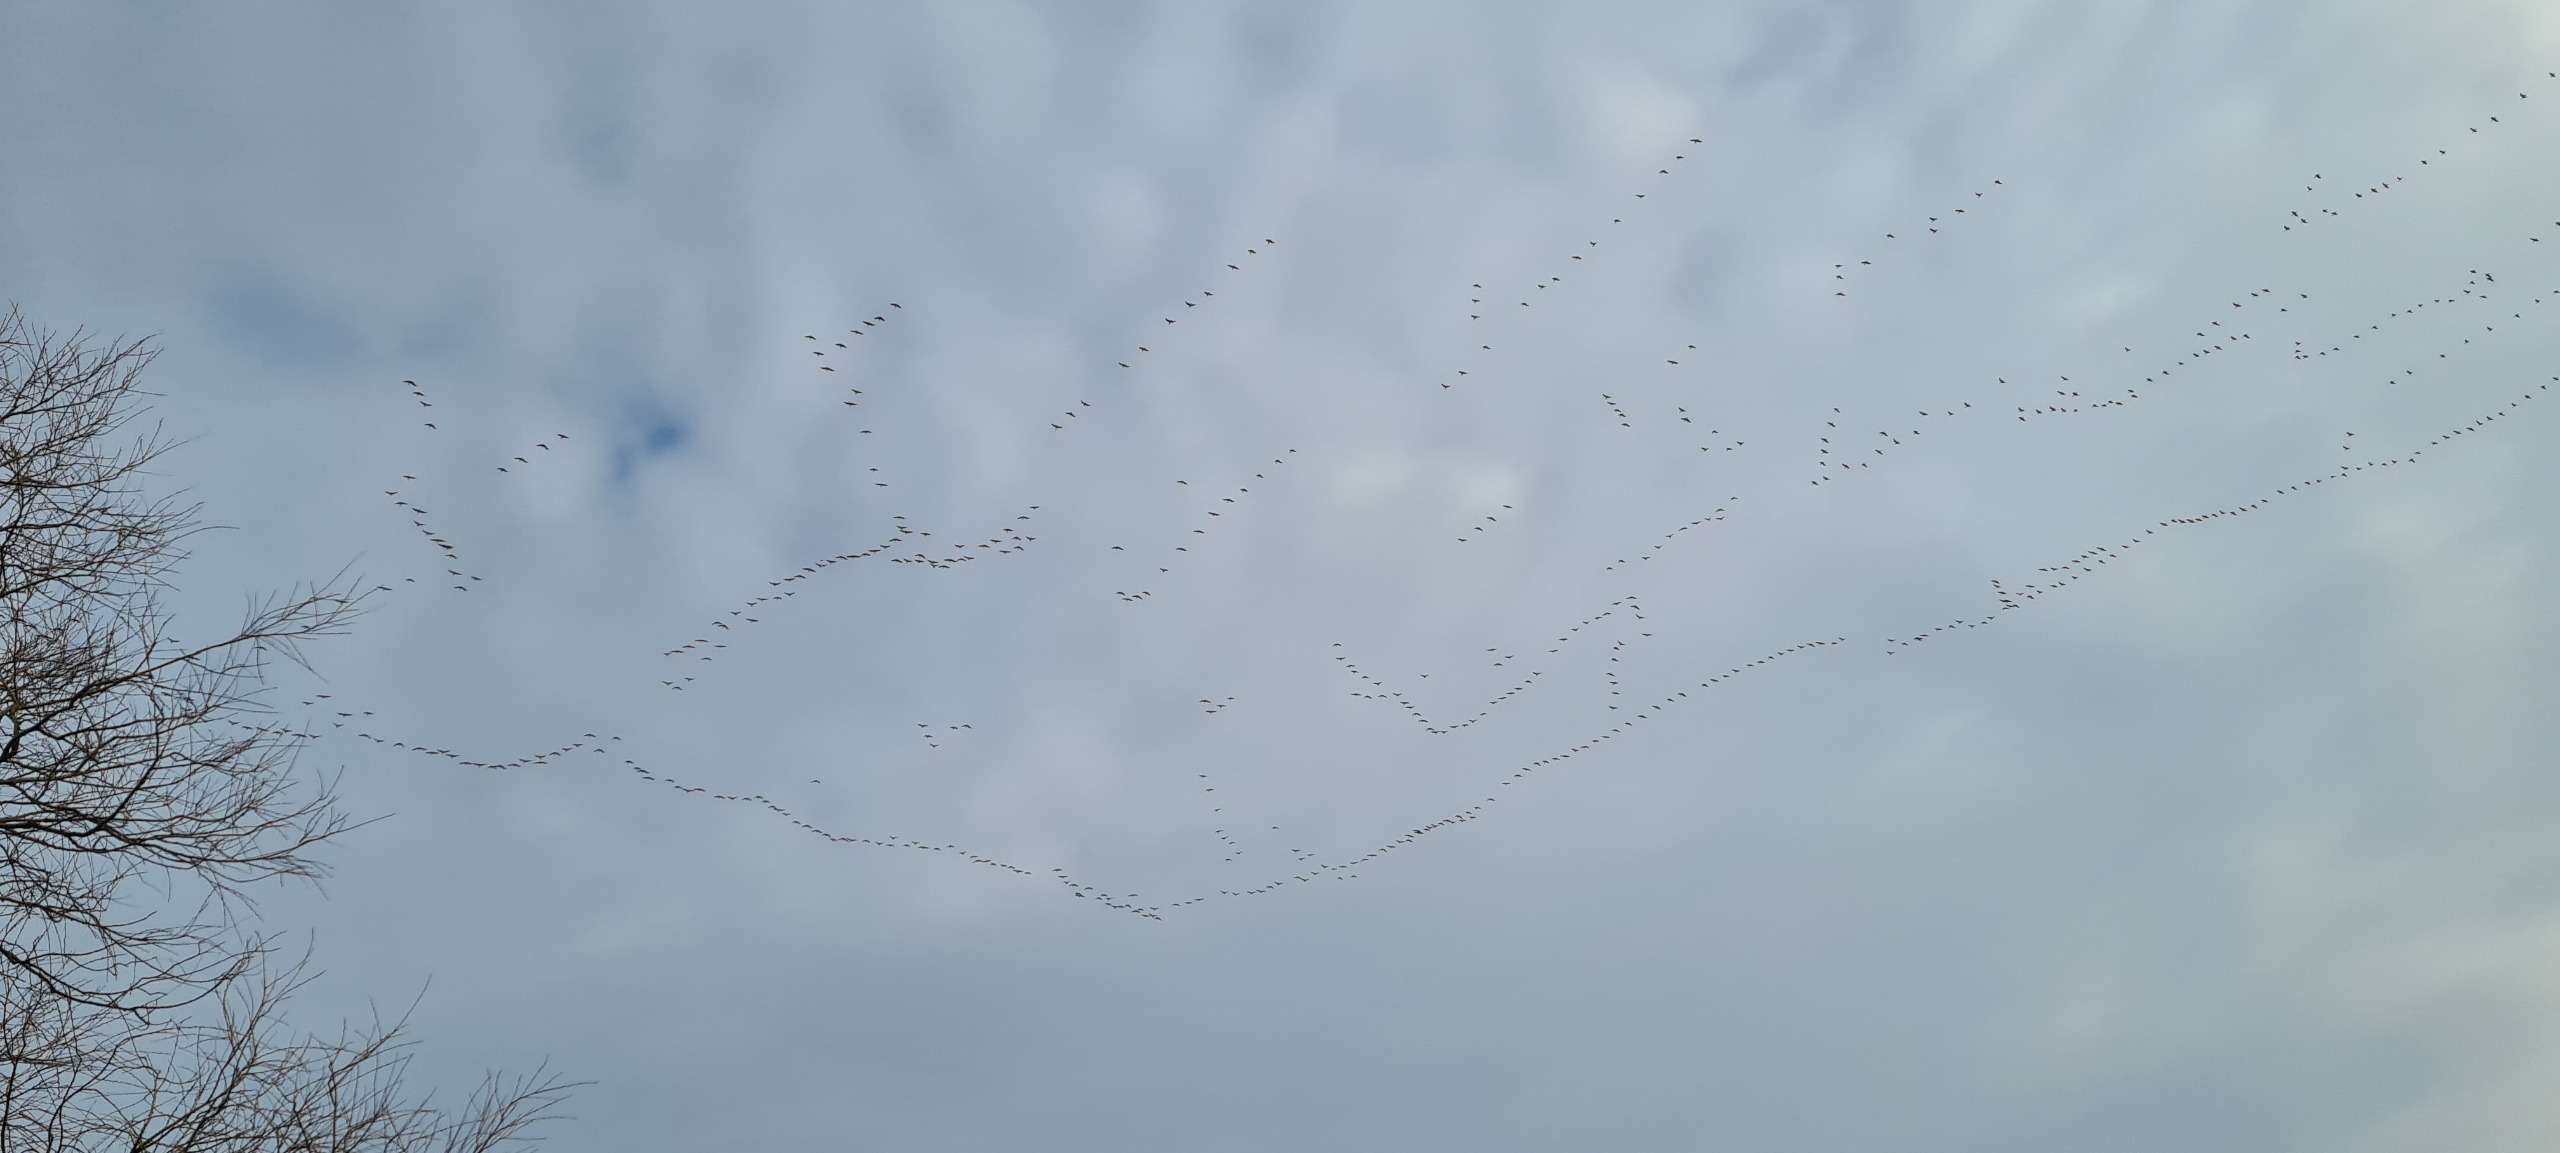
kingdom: Animalia
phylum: Chordata
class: Aves
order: Gruiformes
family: Gruidae
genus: Grus
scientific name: Grus grus
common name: Trane
